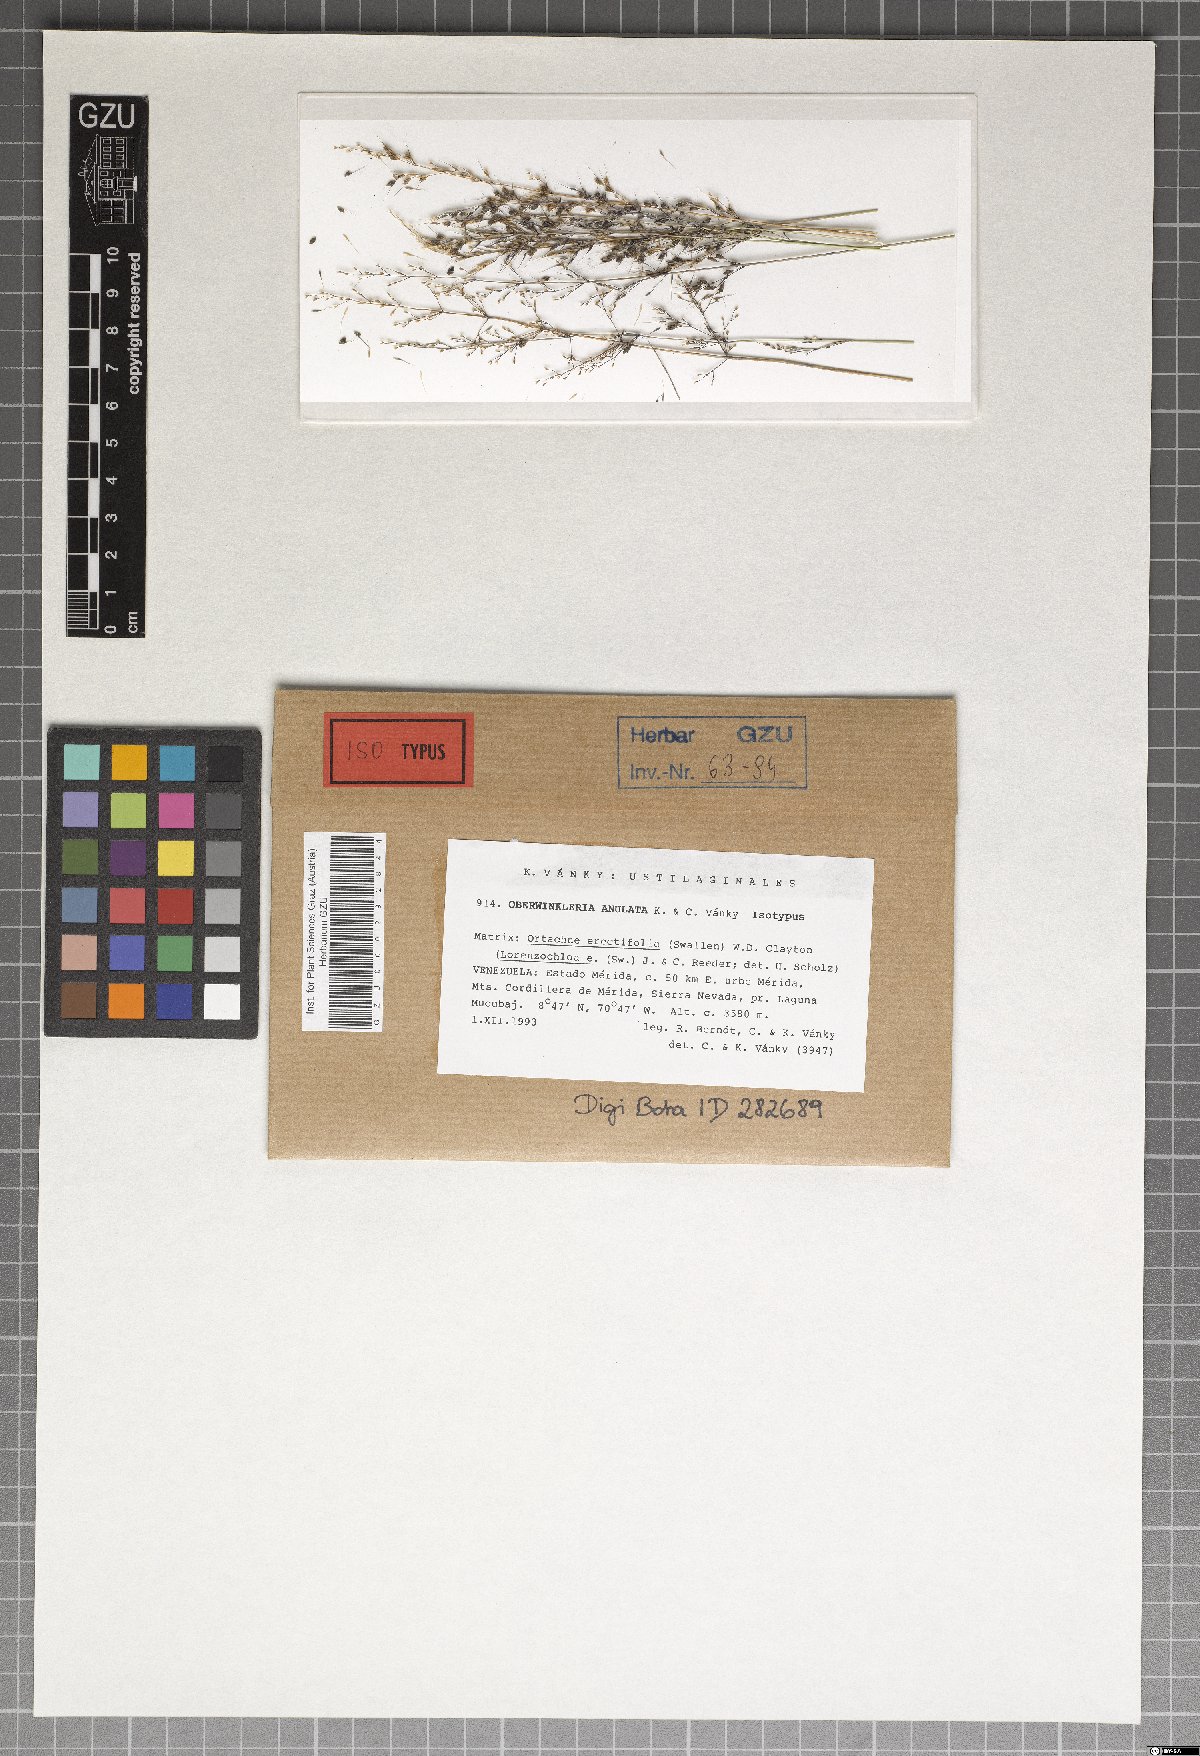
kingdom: Fungi
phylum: Basidiomycota
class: Exobasidiomycetes
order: Tilletiales
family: Tilletiaceae
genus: Oberwinkleria
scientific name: Oberwinkleria anulata
